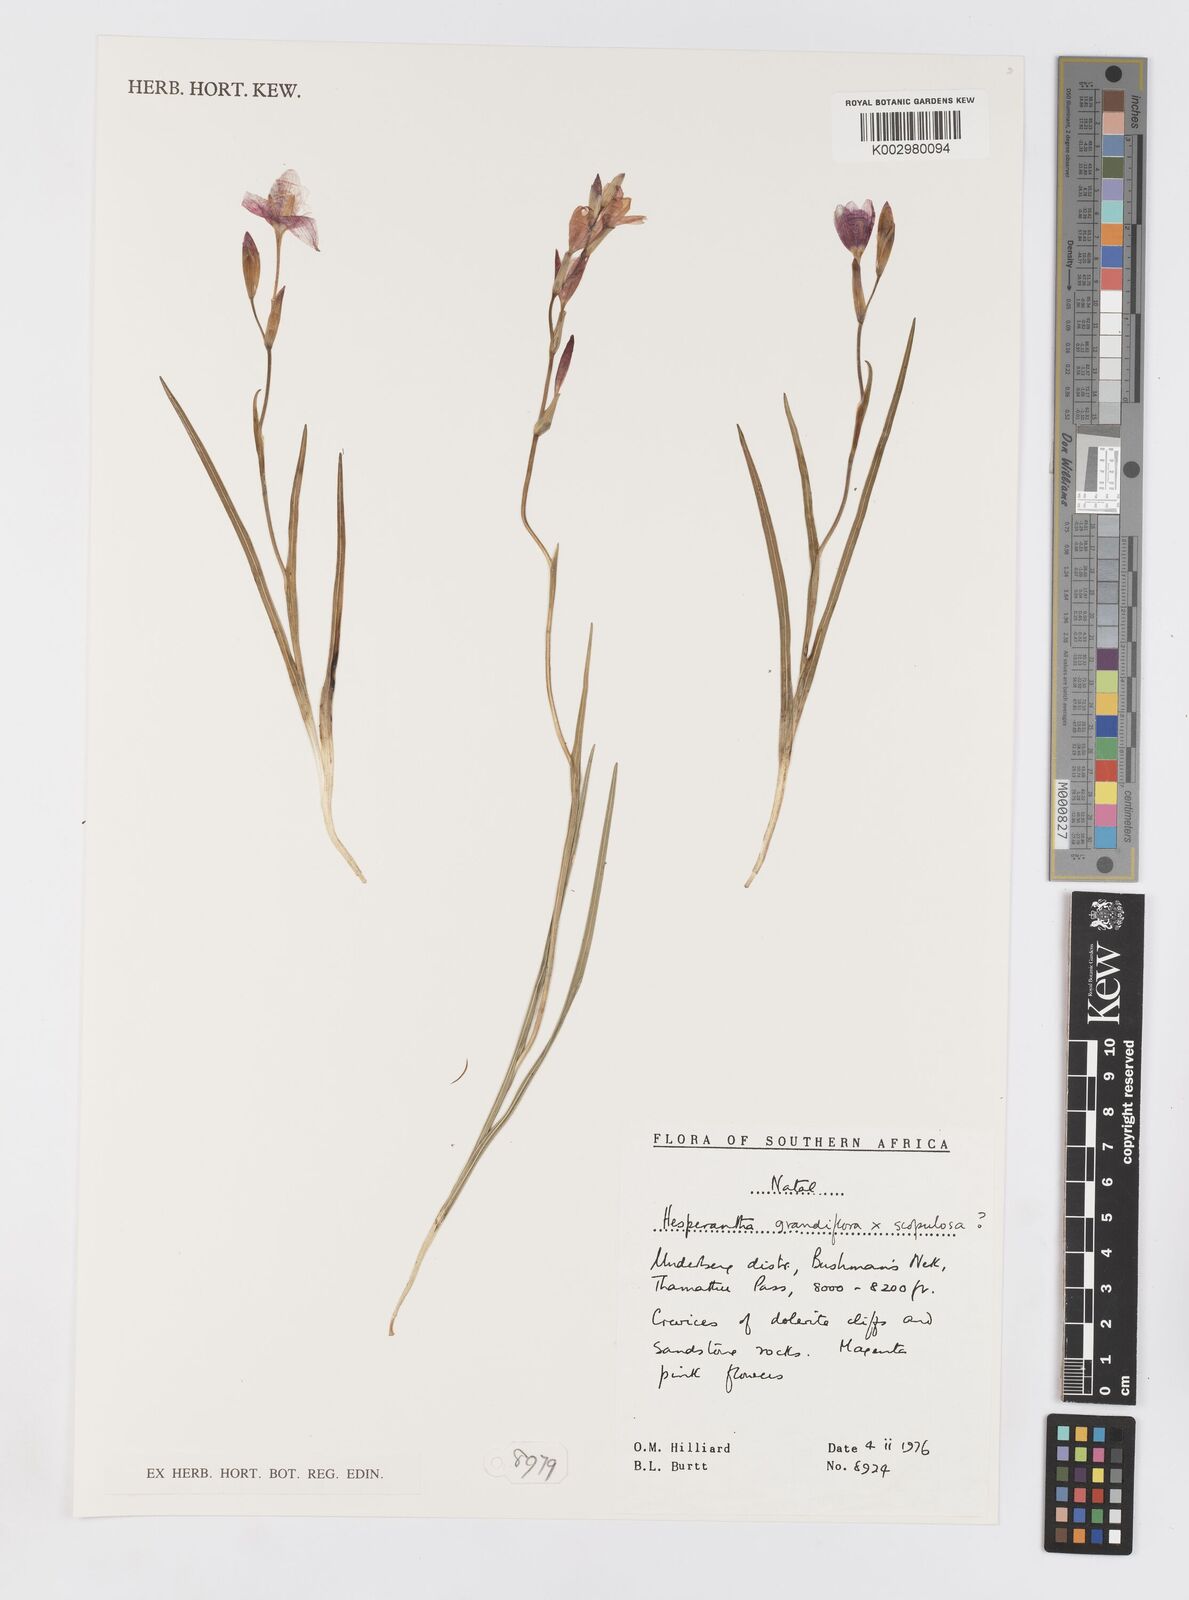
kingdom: Plantae
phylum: Tracheophyta
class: Liliopsida
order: Asparagales
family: Iridaceae
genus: Hesperantha
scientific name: Hesperantha
